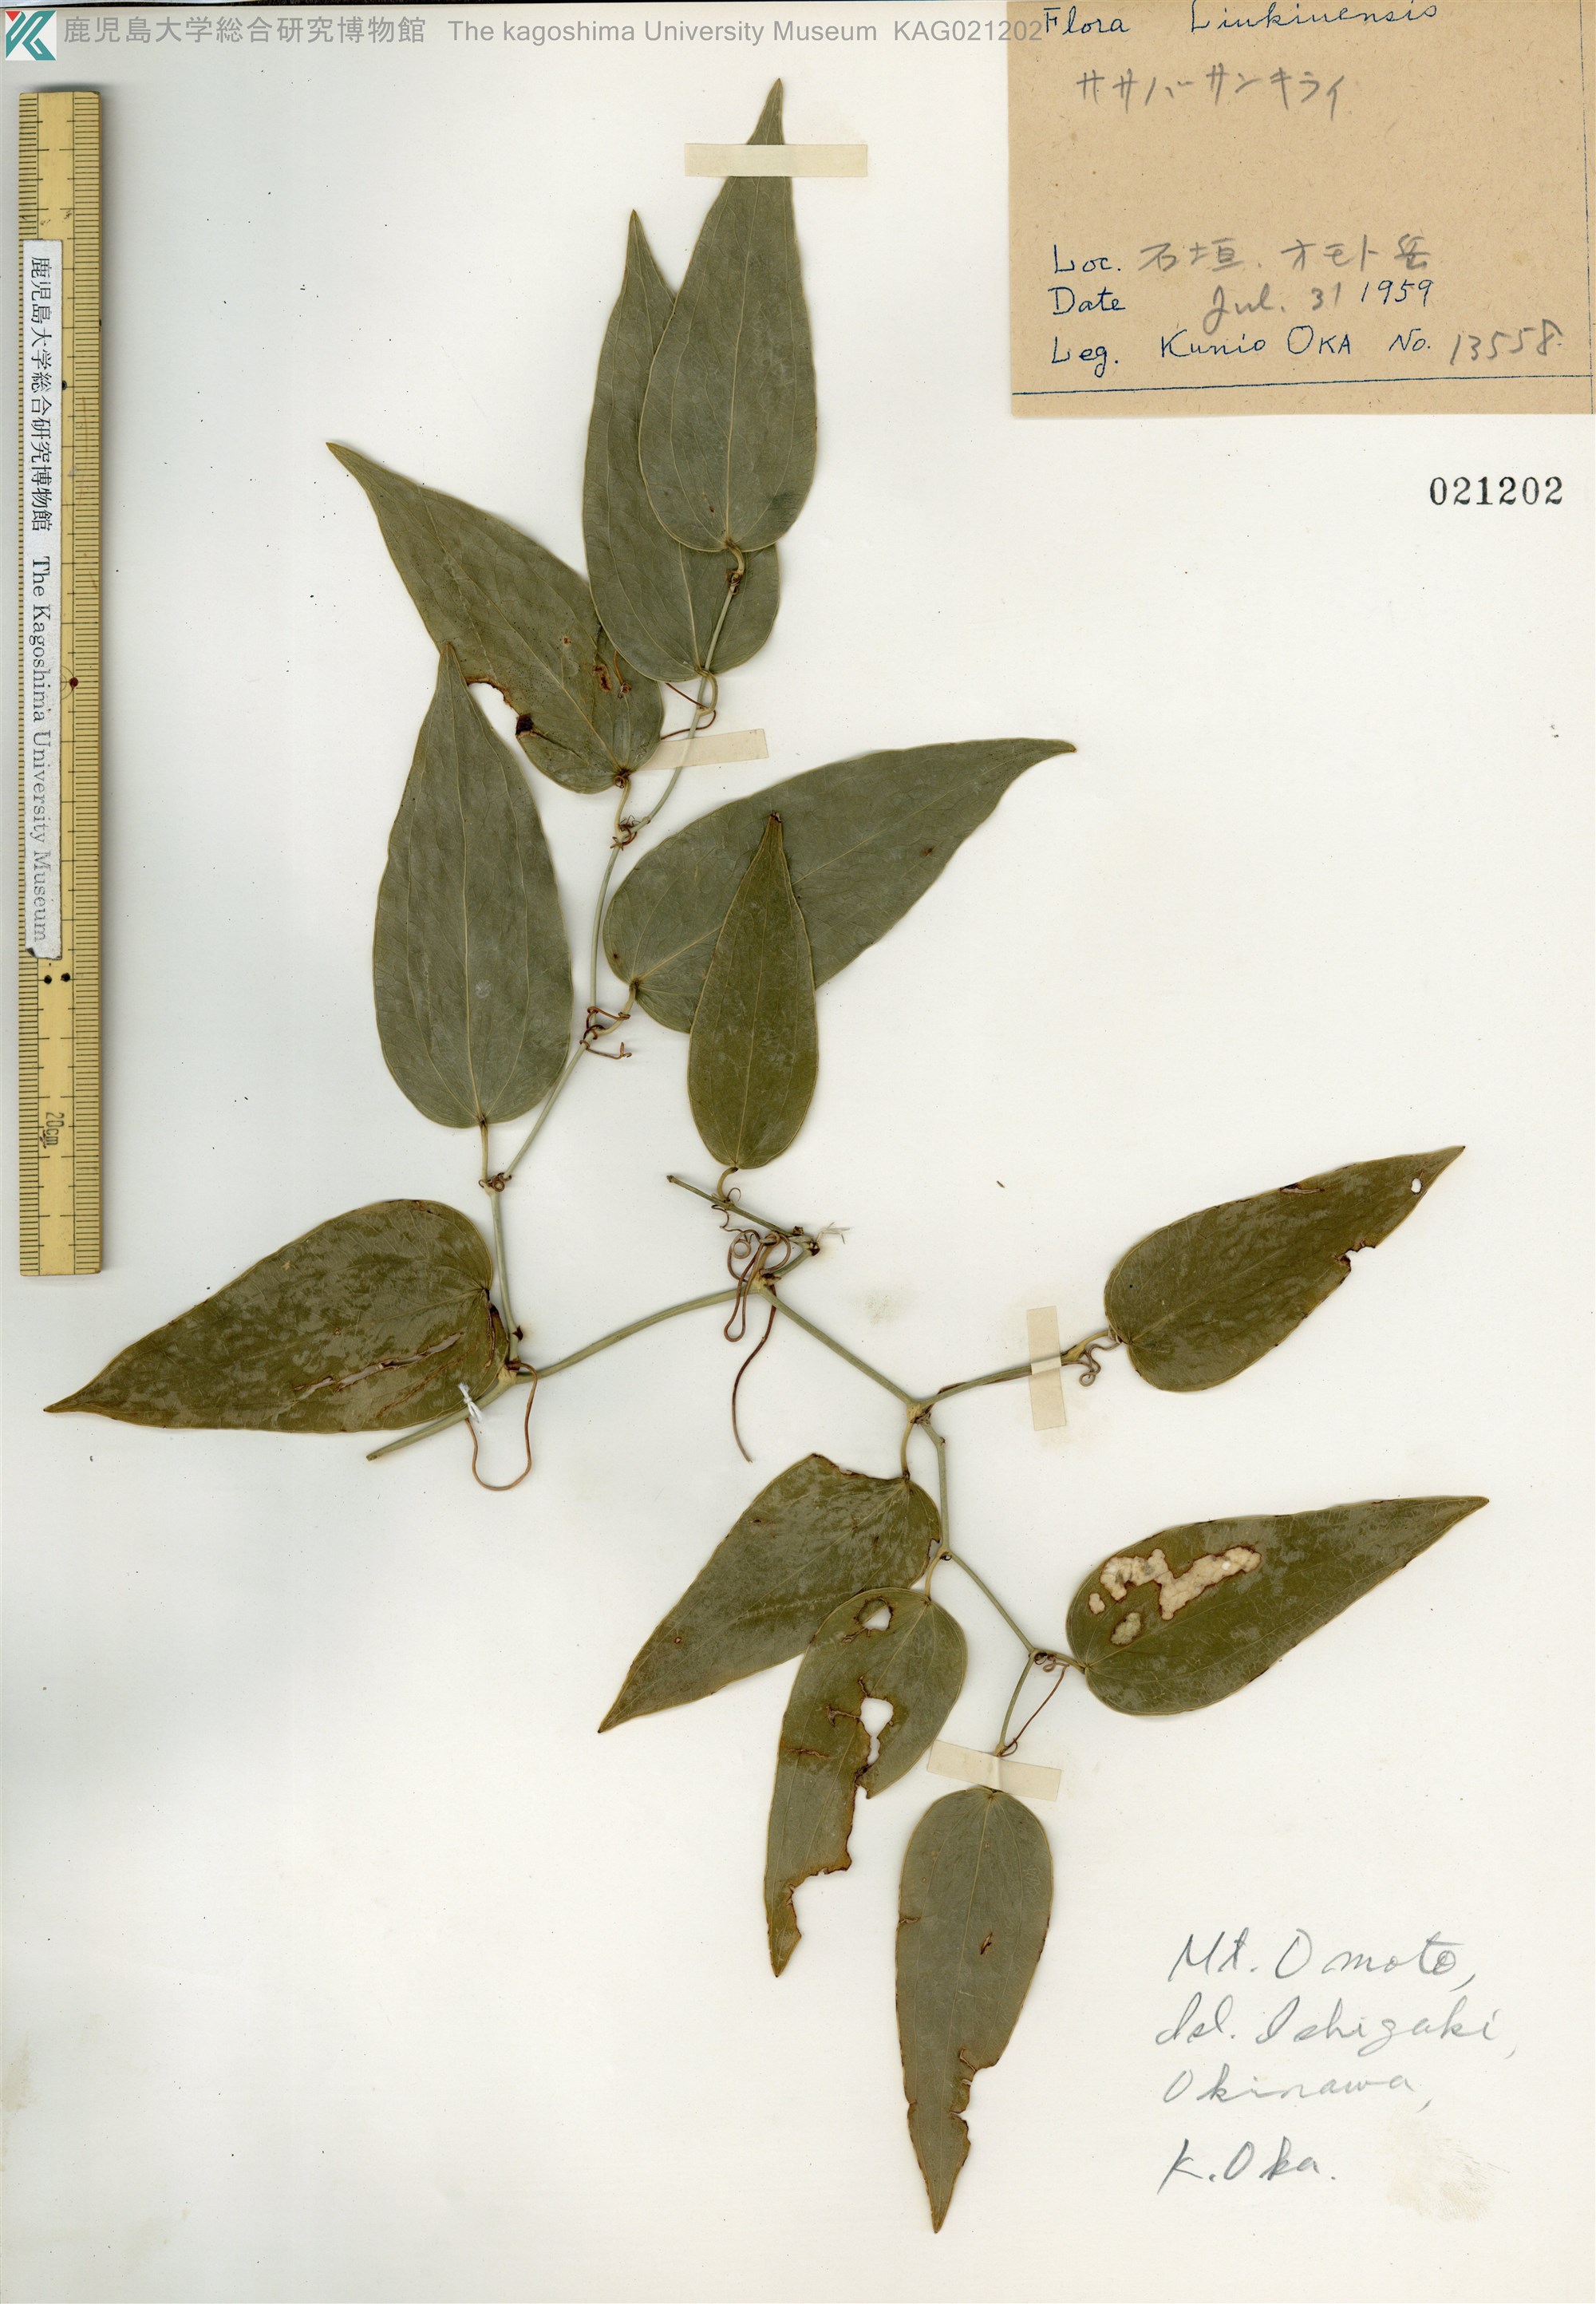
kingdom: Plantae
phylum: Tracheophyta
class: Liliopsida
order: Liliales
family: Smilacaceae
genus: Smilax
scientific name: Smilax nervomarginata
